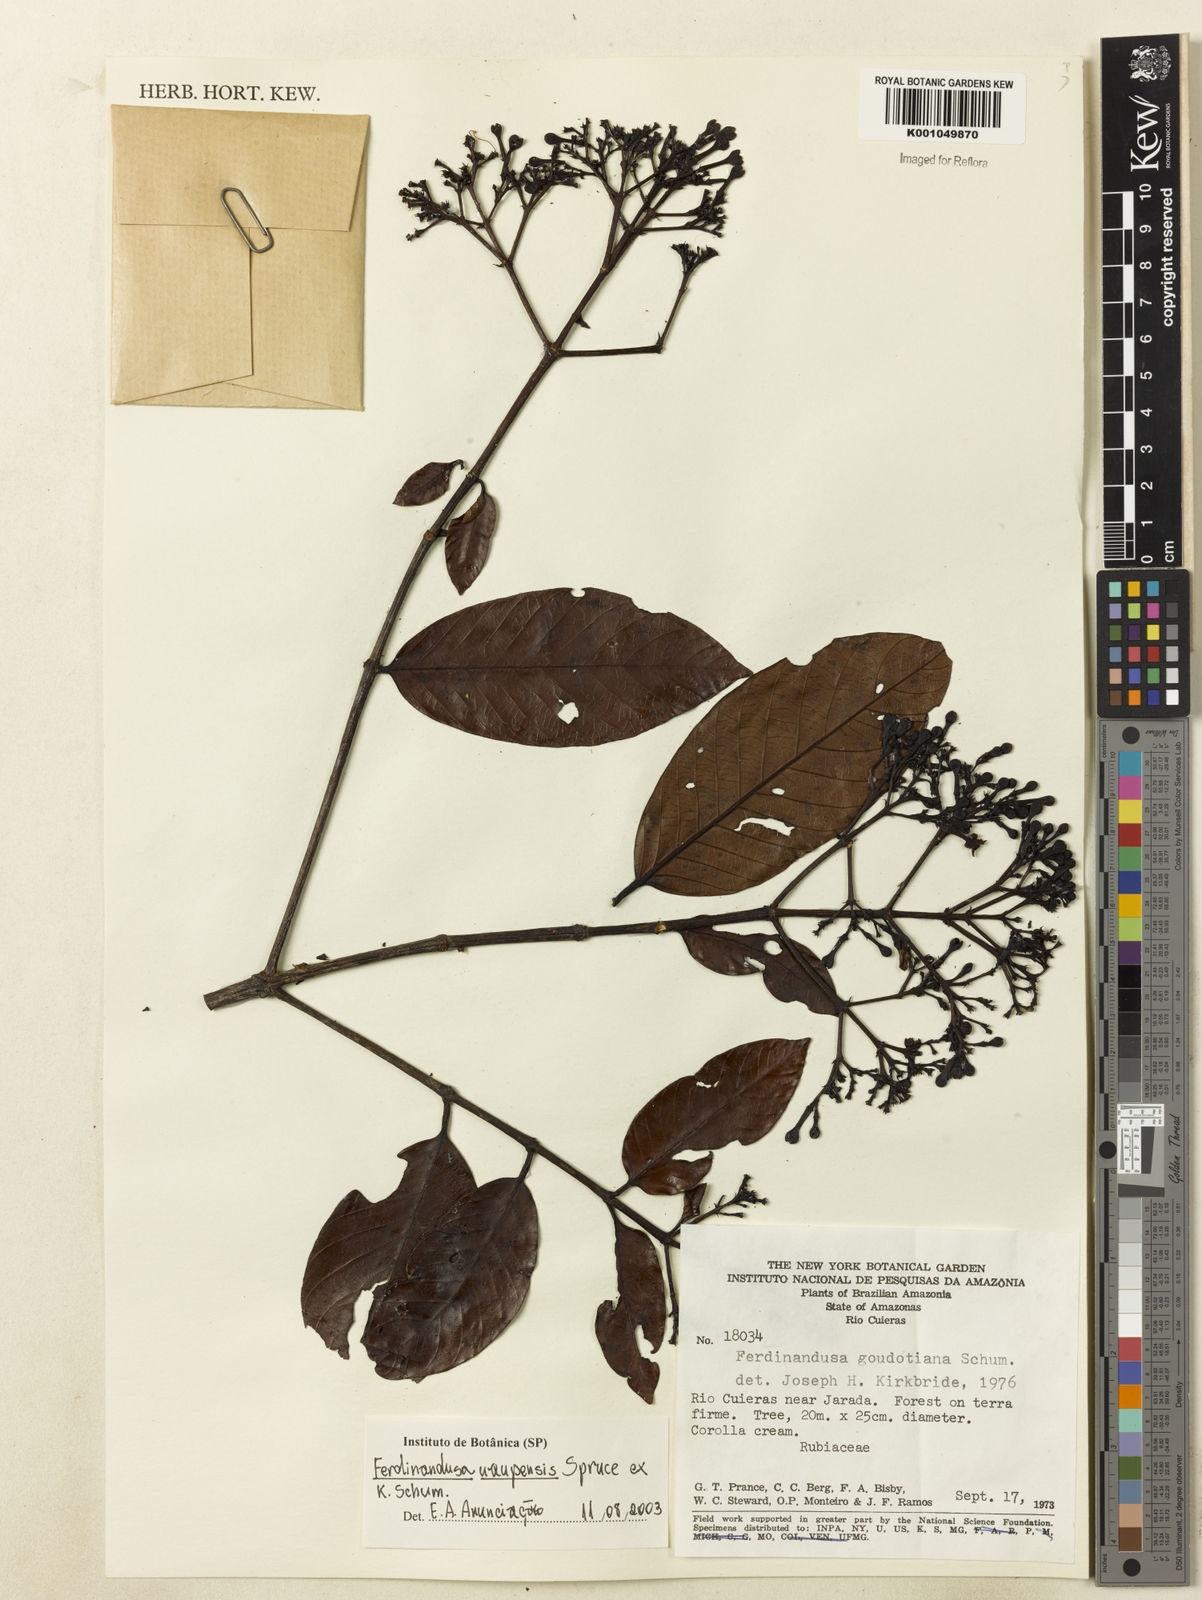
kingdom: Plantae
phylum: Tracheophyta
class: Magnoliopsida
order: Gentianales
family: Rubiaceae
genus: Ferdinandusa
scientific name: Ferdinandusa uaupensis
